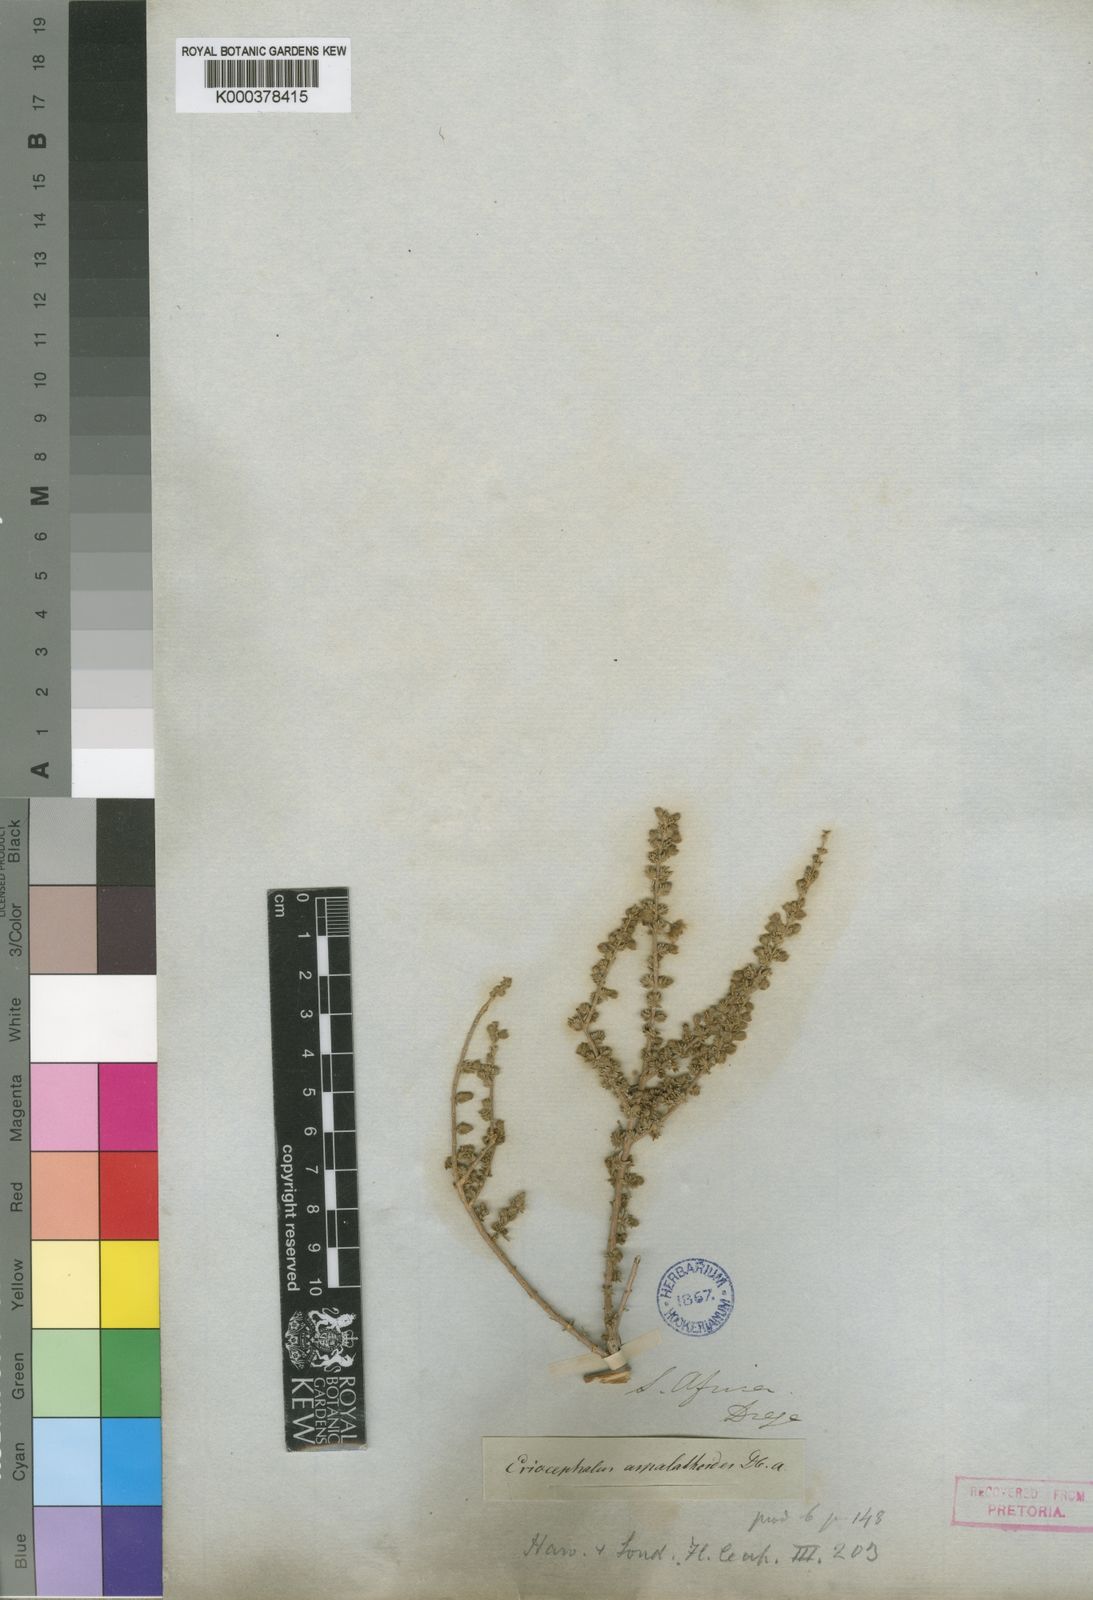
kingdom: Plantae
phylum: Tracheophyta
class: Magnoliopsida
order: Asterales
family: Asteraceae
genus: Eriocephalus
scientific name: Eriocephalus decussatus
